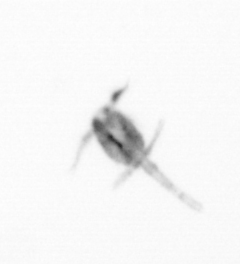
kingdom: Animalia
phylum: Arthropoda
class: Copepoda
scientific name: Copepoda
